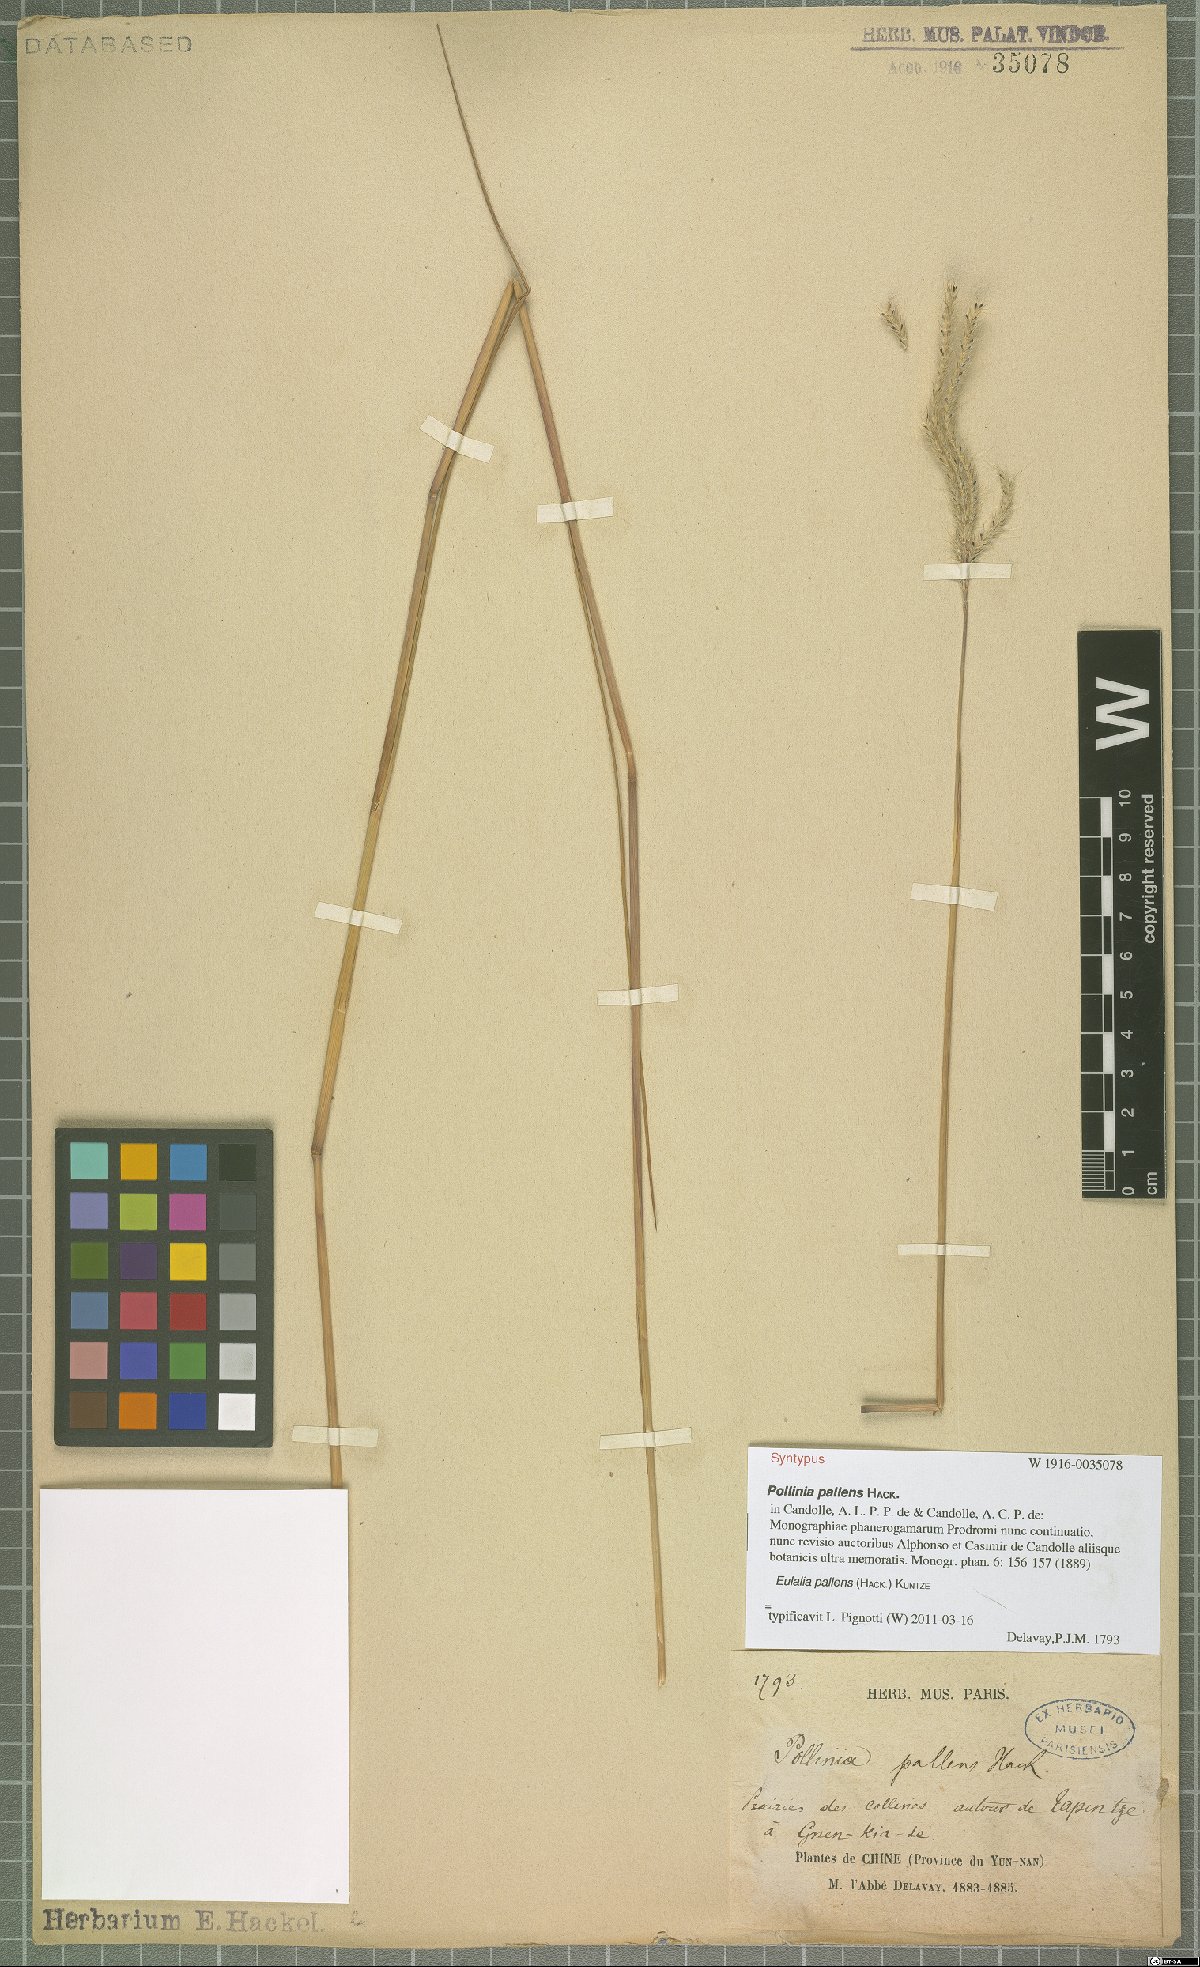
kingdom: Plantae
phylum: Tracheophyta
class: Liliopsida
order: Poales
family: Poaceae
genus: Eulalia
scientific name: Eulalia pallens
